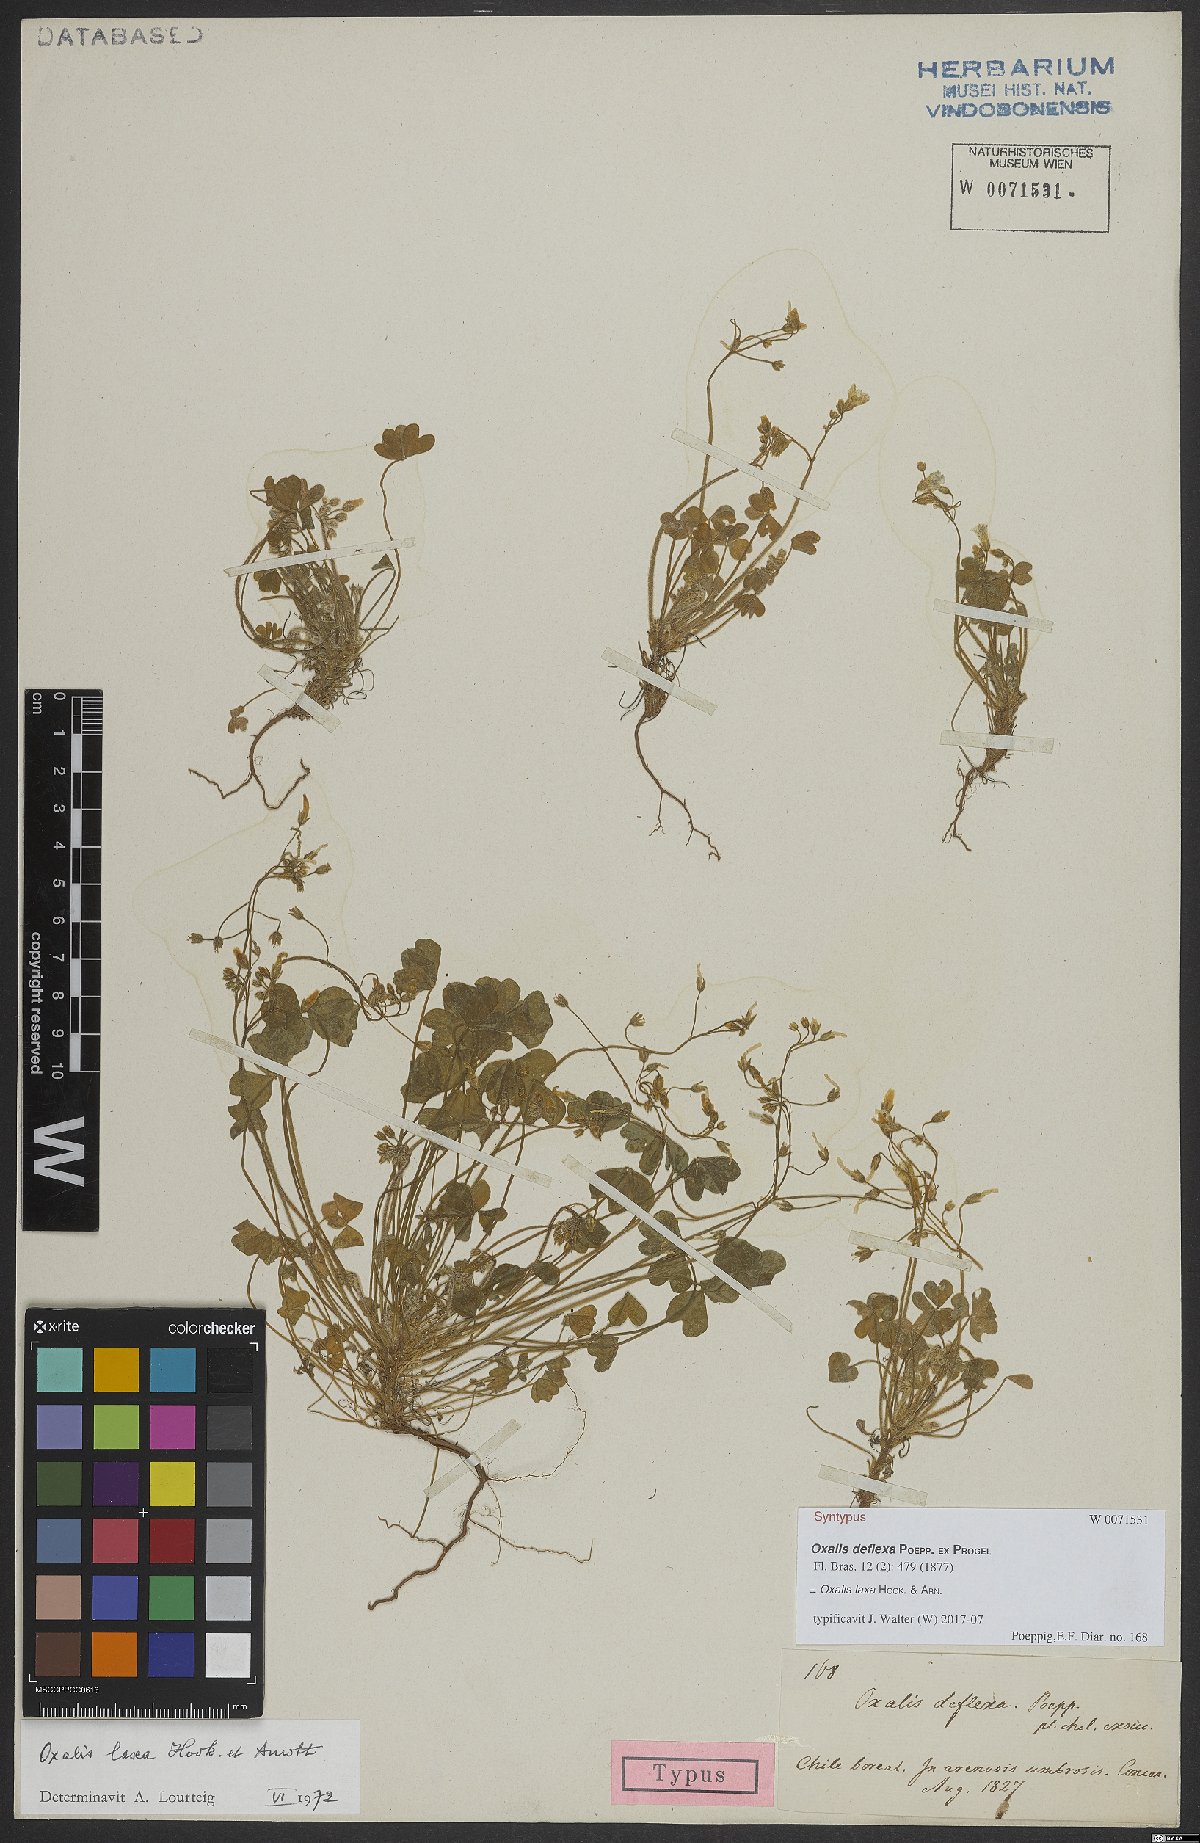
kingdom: Plantae
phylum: Tracheophyta
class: Magnoliopsida
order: Oxalidales
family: Oxalidaceae
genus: Oxalis
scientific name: Oxalis laxa
